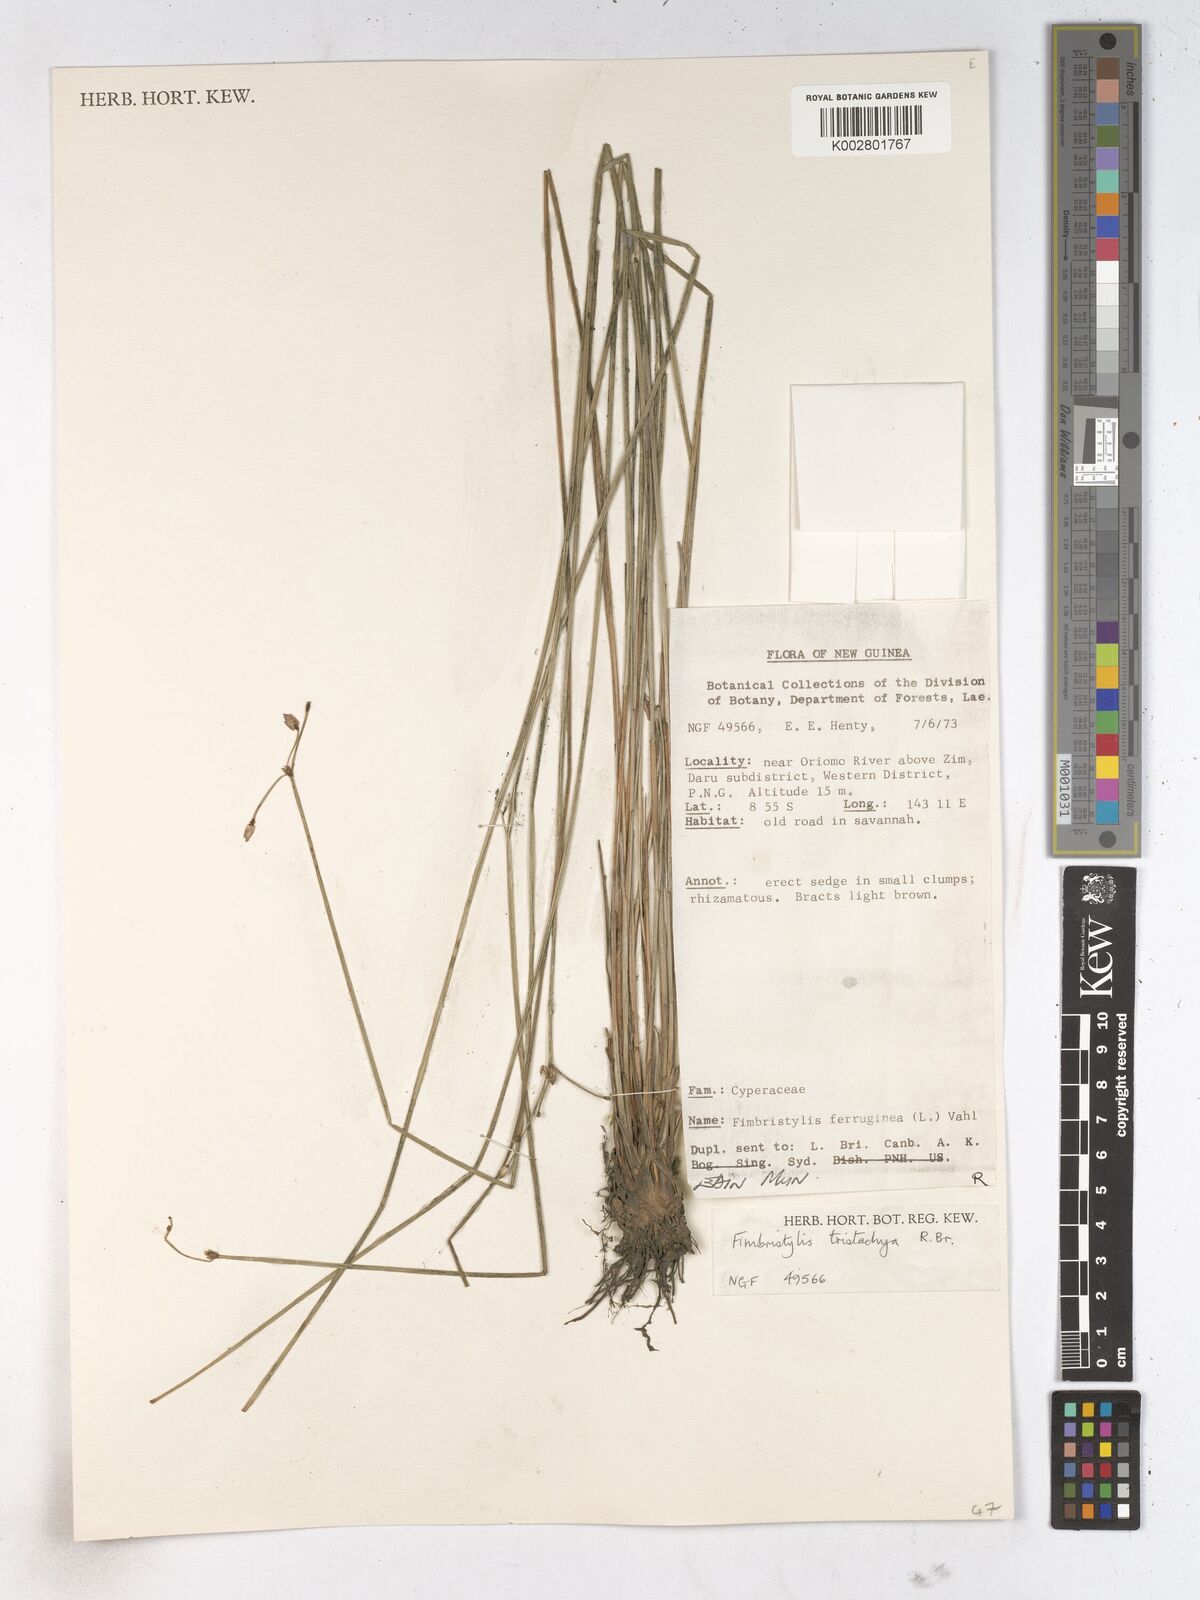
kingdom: Plantae
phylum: Tracheophyta
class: Liliopsida
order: Poales
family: Cyperaceae
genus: Fimbristylis
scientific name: Fimbristylis tristachya
